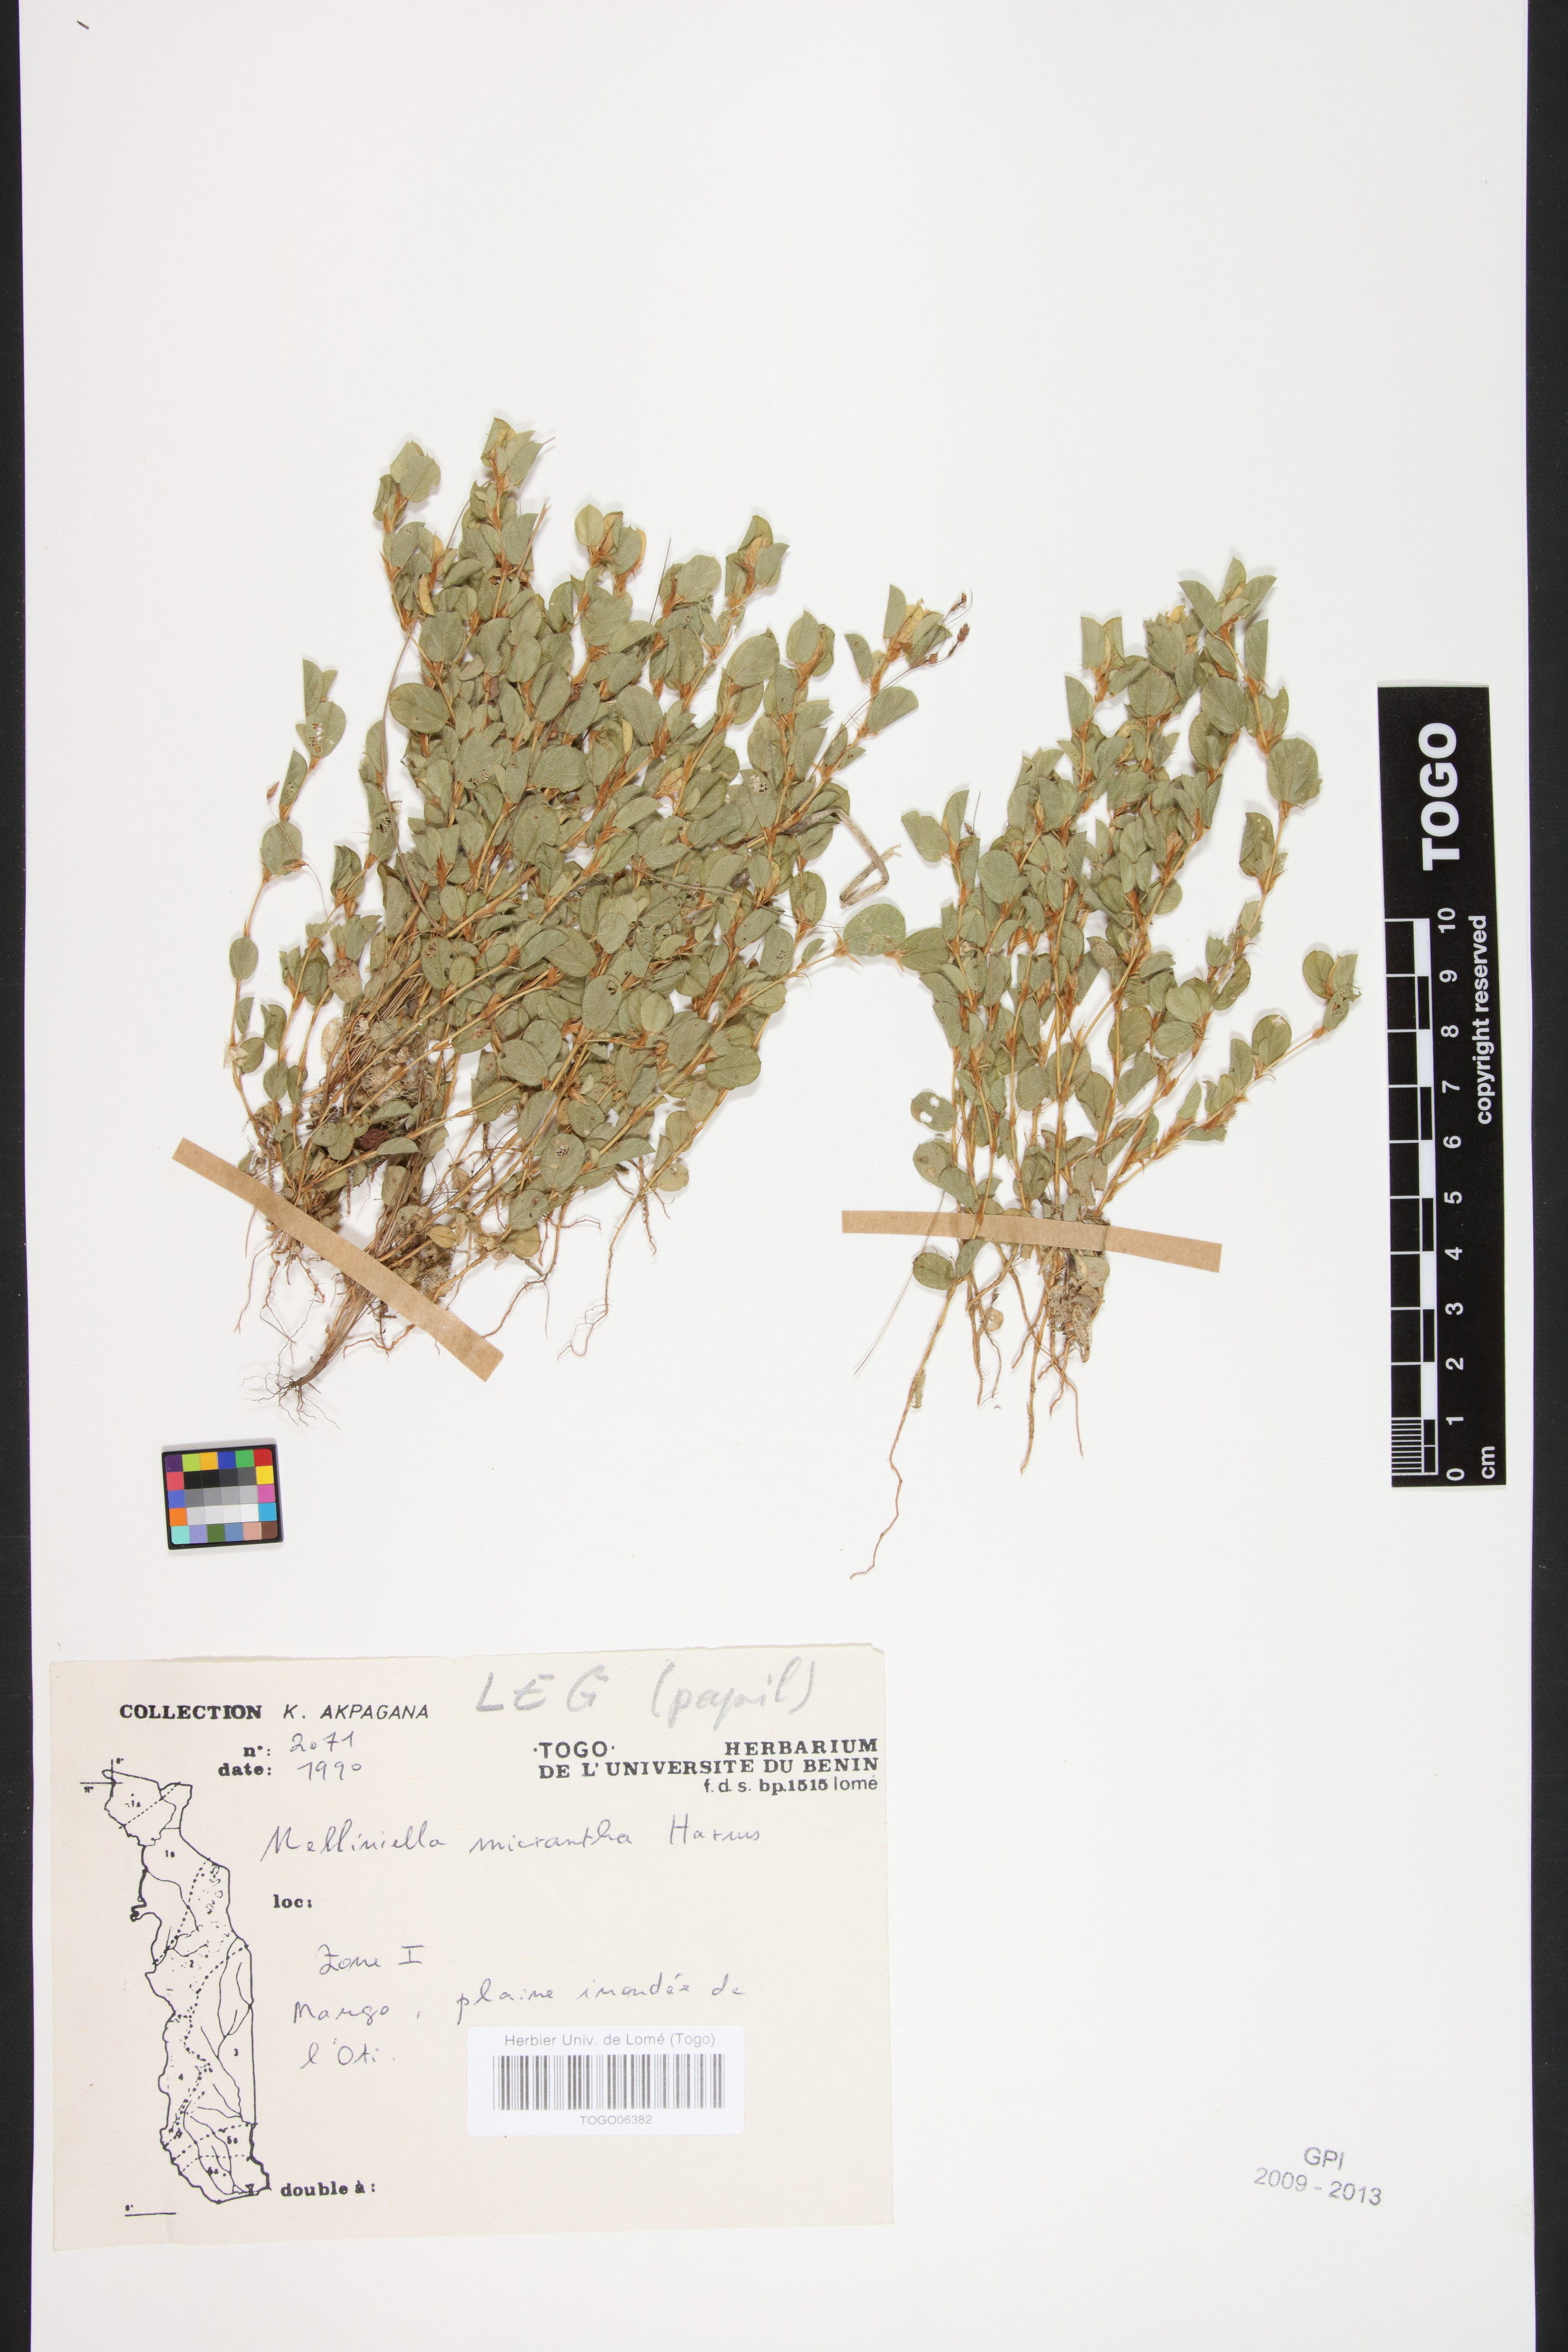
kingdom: Plantae
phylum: Tracheophyta
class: Magnoliopsida
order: Fabales
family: Fabaceae
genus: Melliniella
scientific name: Melliniella micrantha
